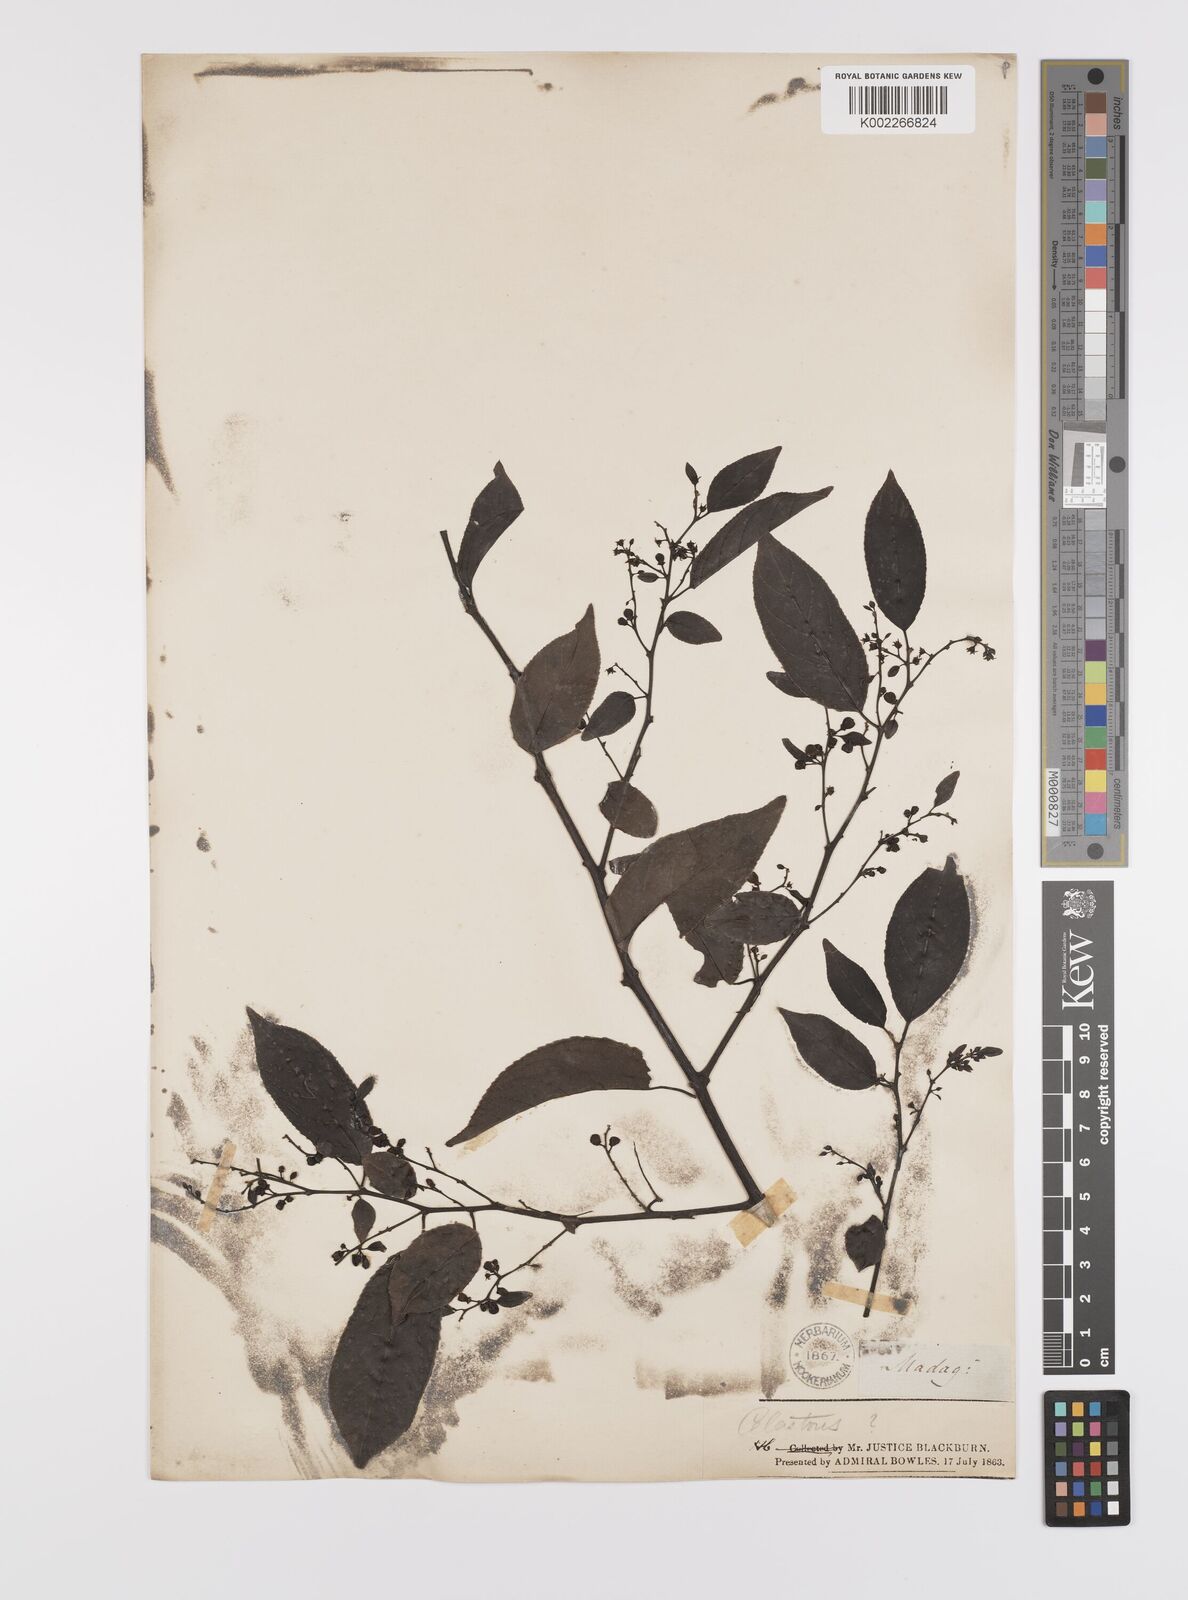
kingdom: Plantae
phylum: Tracheophyta
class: Magnoliopsida
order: Celastrales
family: Celastraceae
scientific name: Celastraceae
